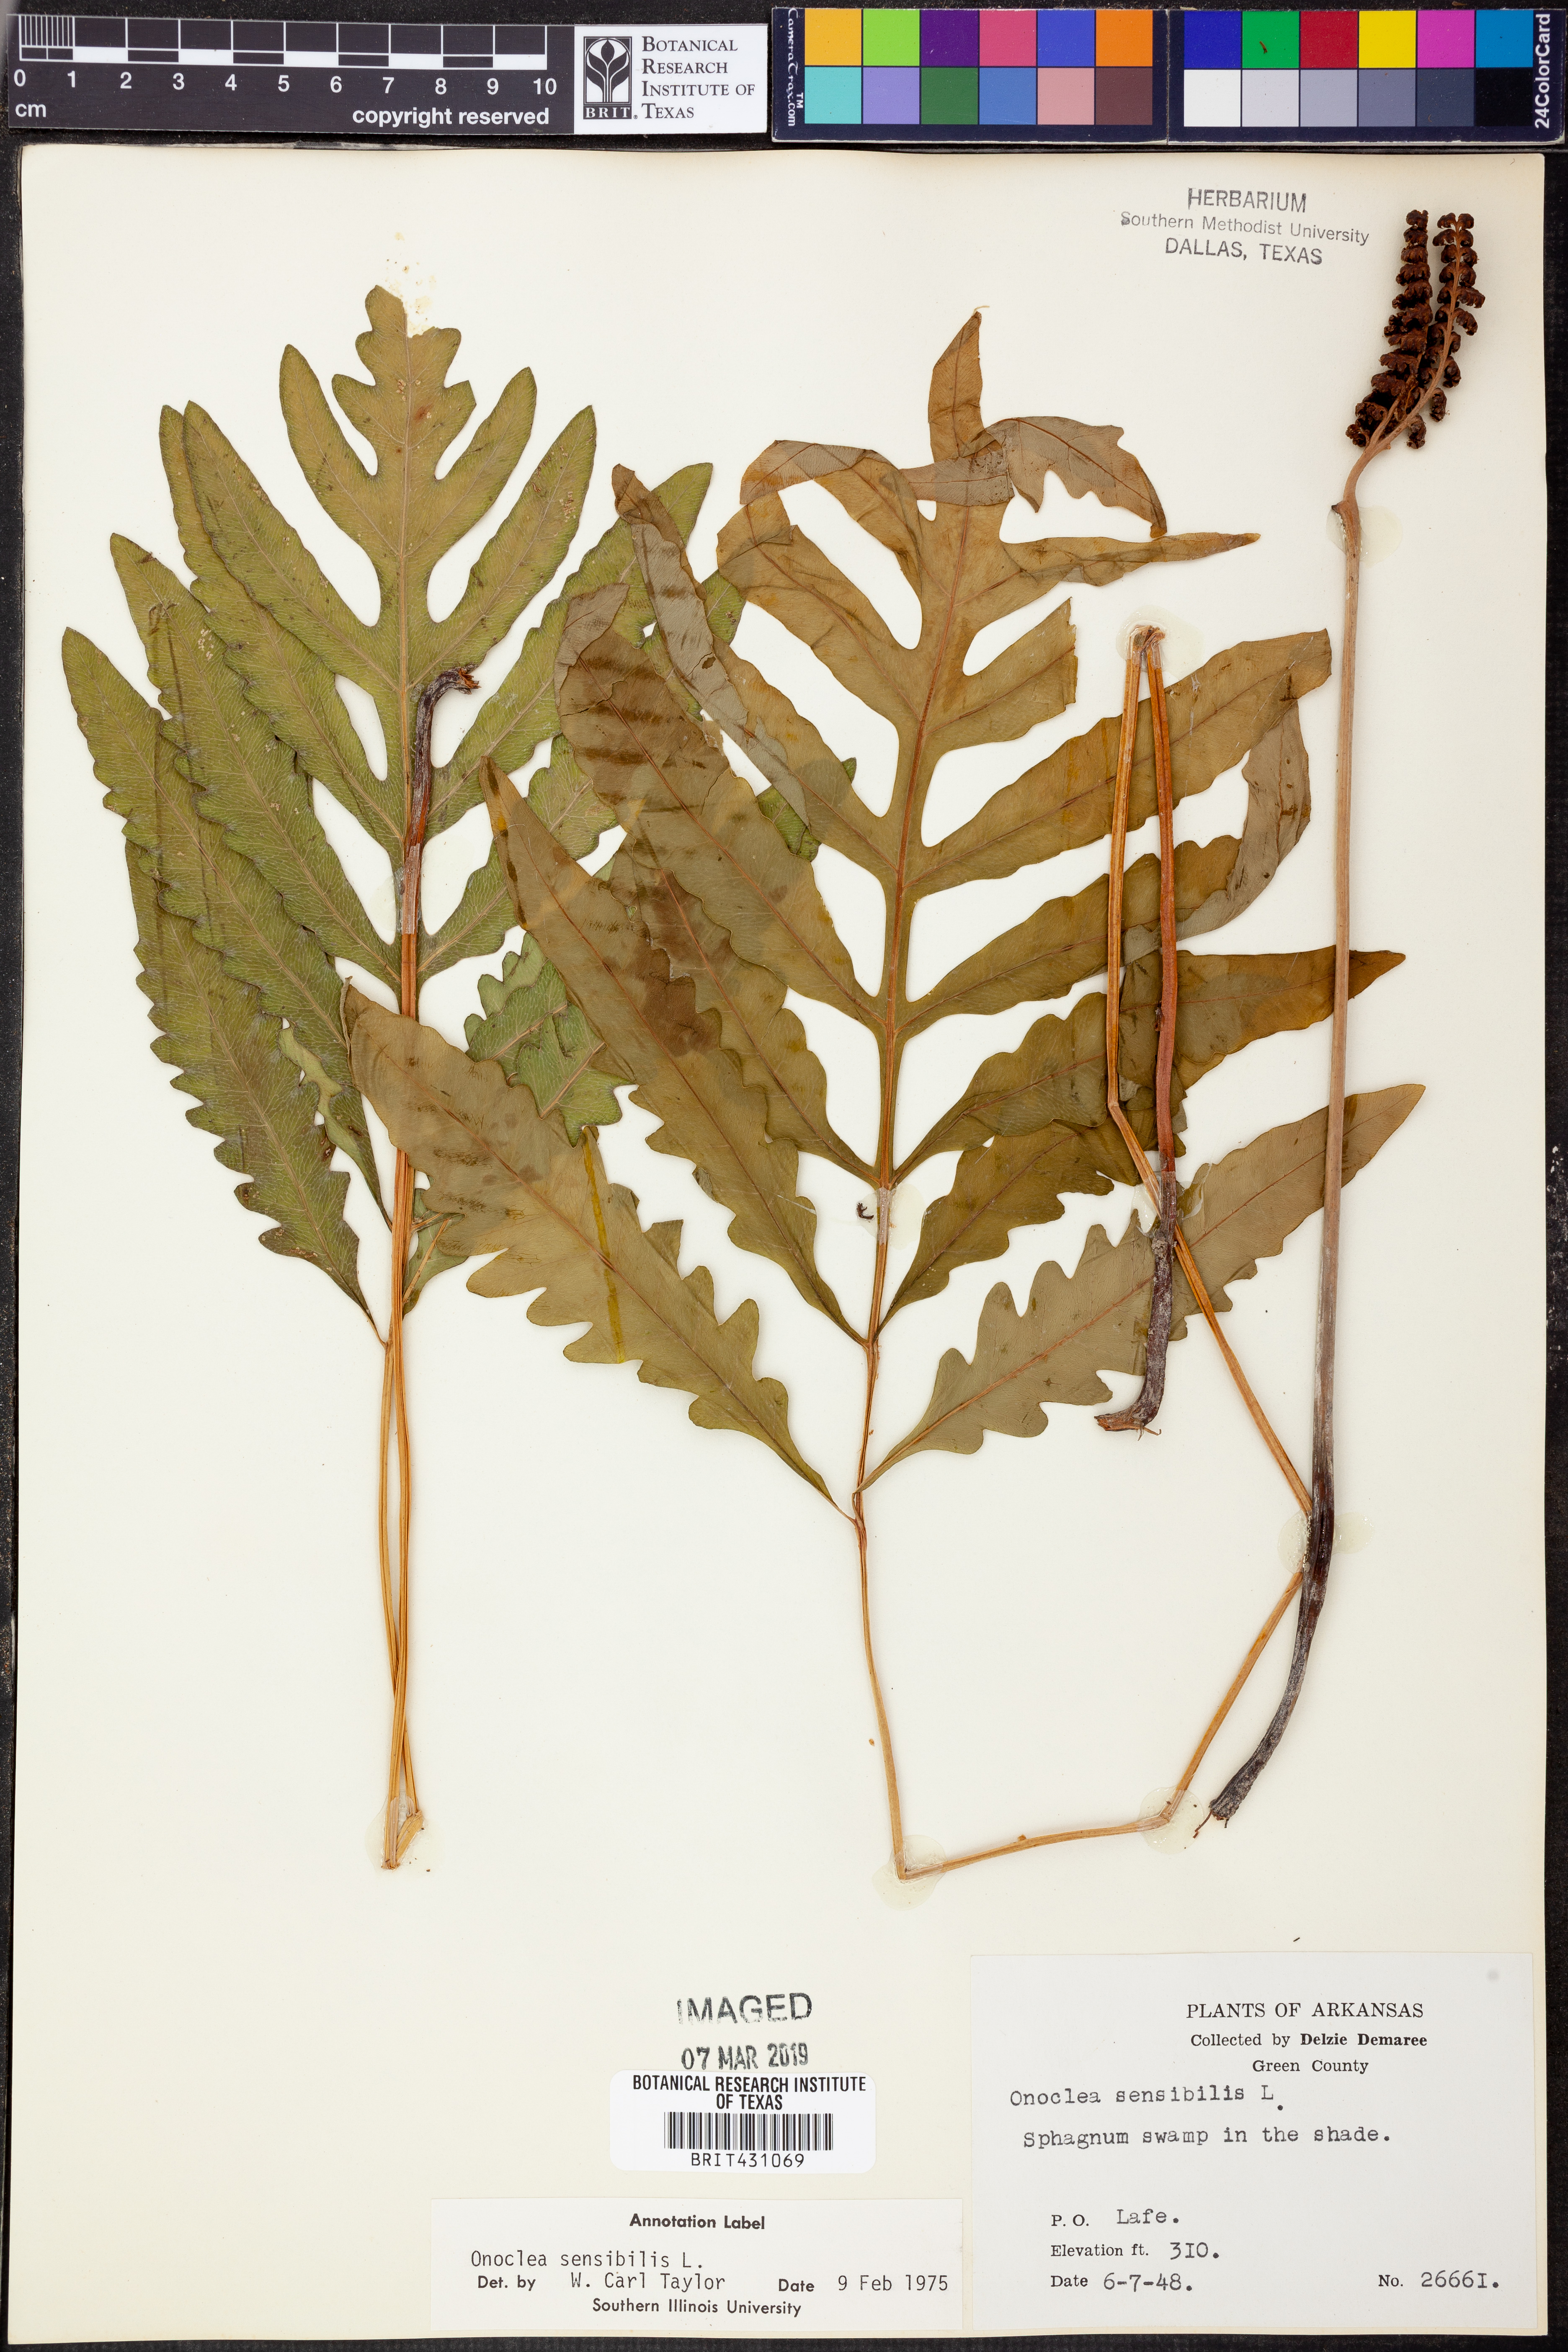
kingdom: Plantae
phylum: Tracheophyta
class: Polypodiopsida
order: Polypodiales
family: Onocleaceae
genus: Onoclea
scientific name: Onoclea sensibilis
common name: Sensitive fern
